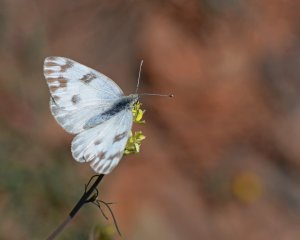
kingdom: Animalia
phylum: Arthropoda
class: Insecta
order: Lepidoptera
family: Pieridae
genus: Pontia
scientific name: Pontia protodice
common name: Checkered White
